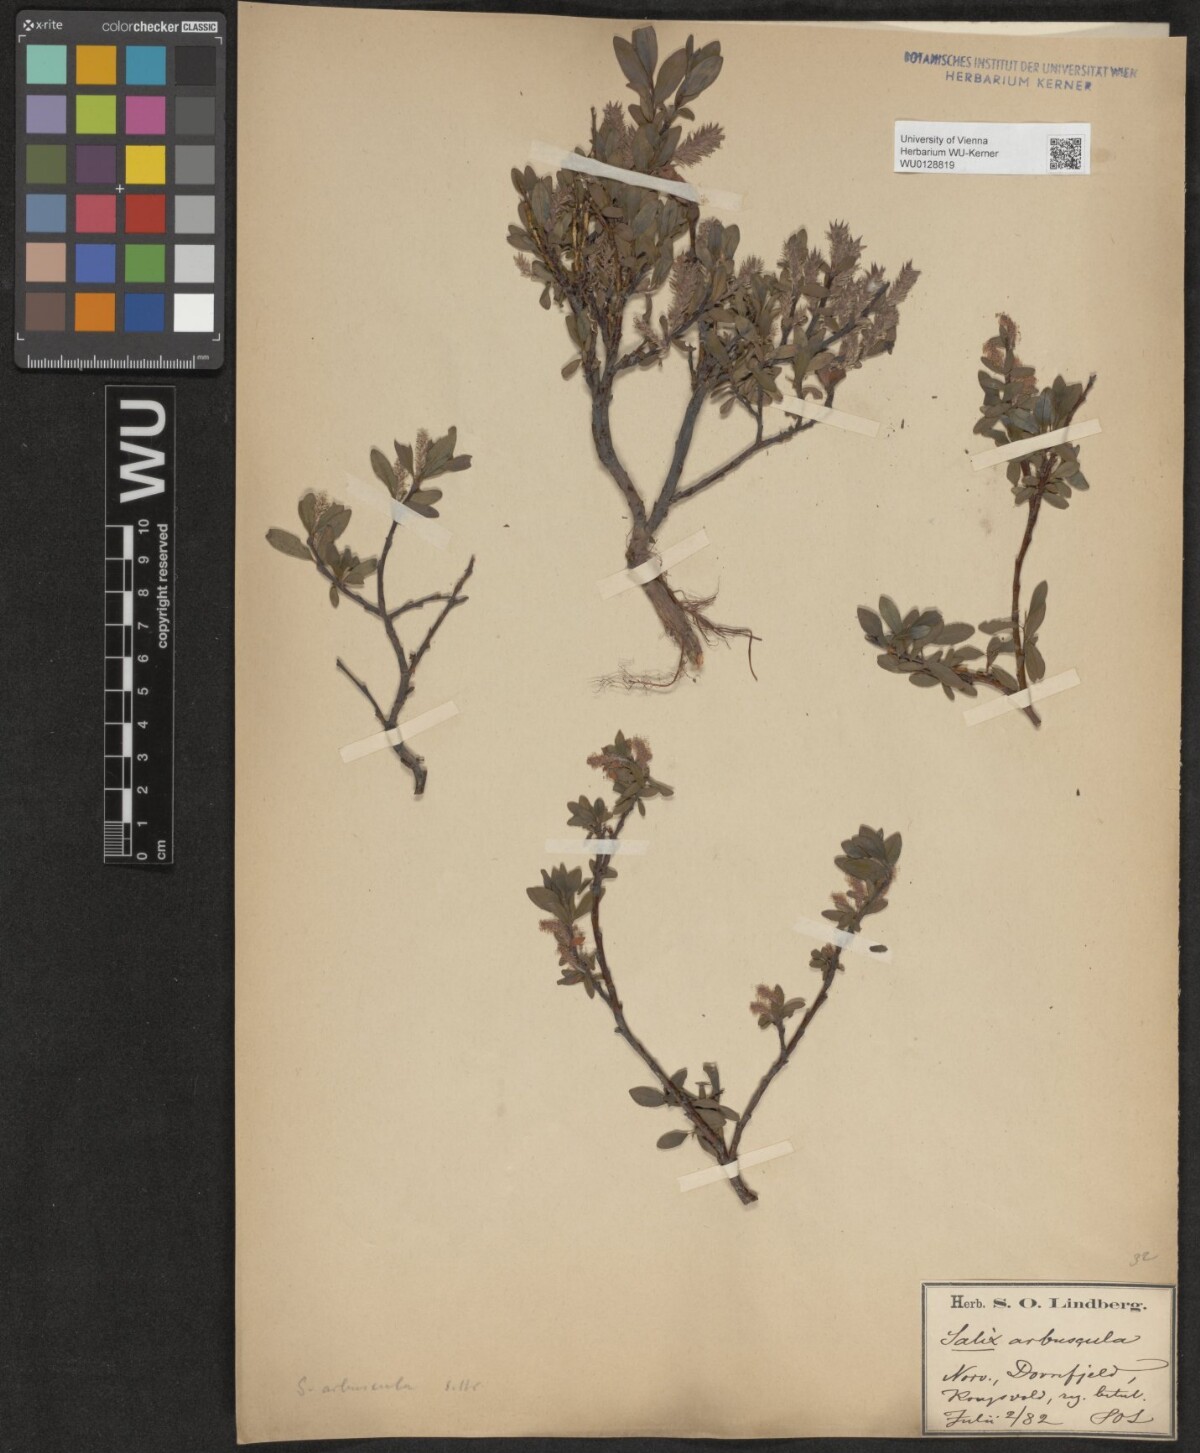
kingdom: Plantae
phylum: Tracheophyta
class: Magnoliopsida
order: Malpighiales
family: Salicaceae
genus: Salix
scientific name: Salix arbuscula
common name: Mountain willow
